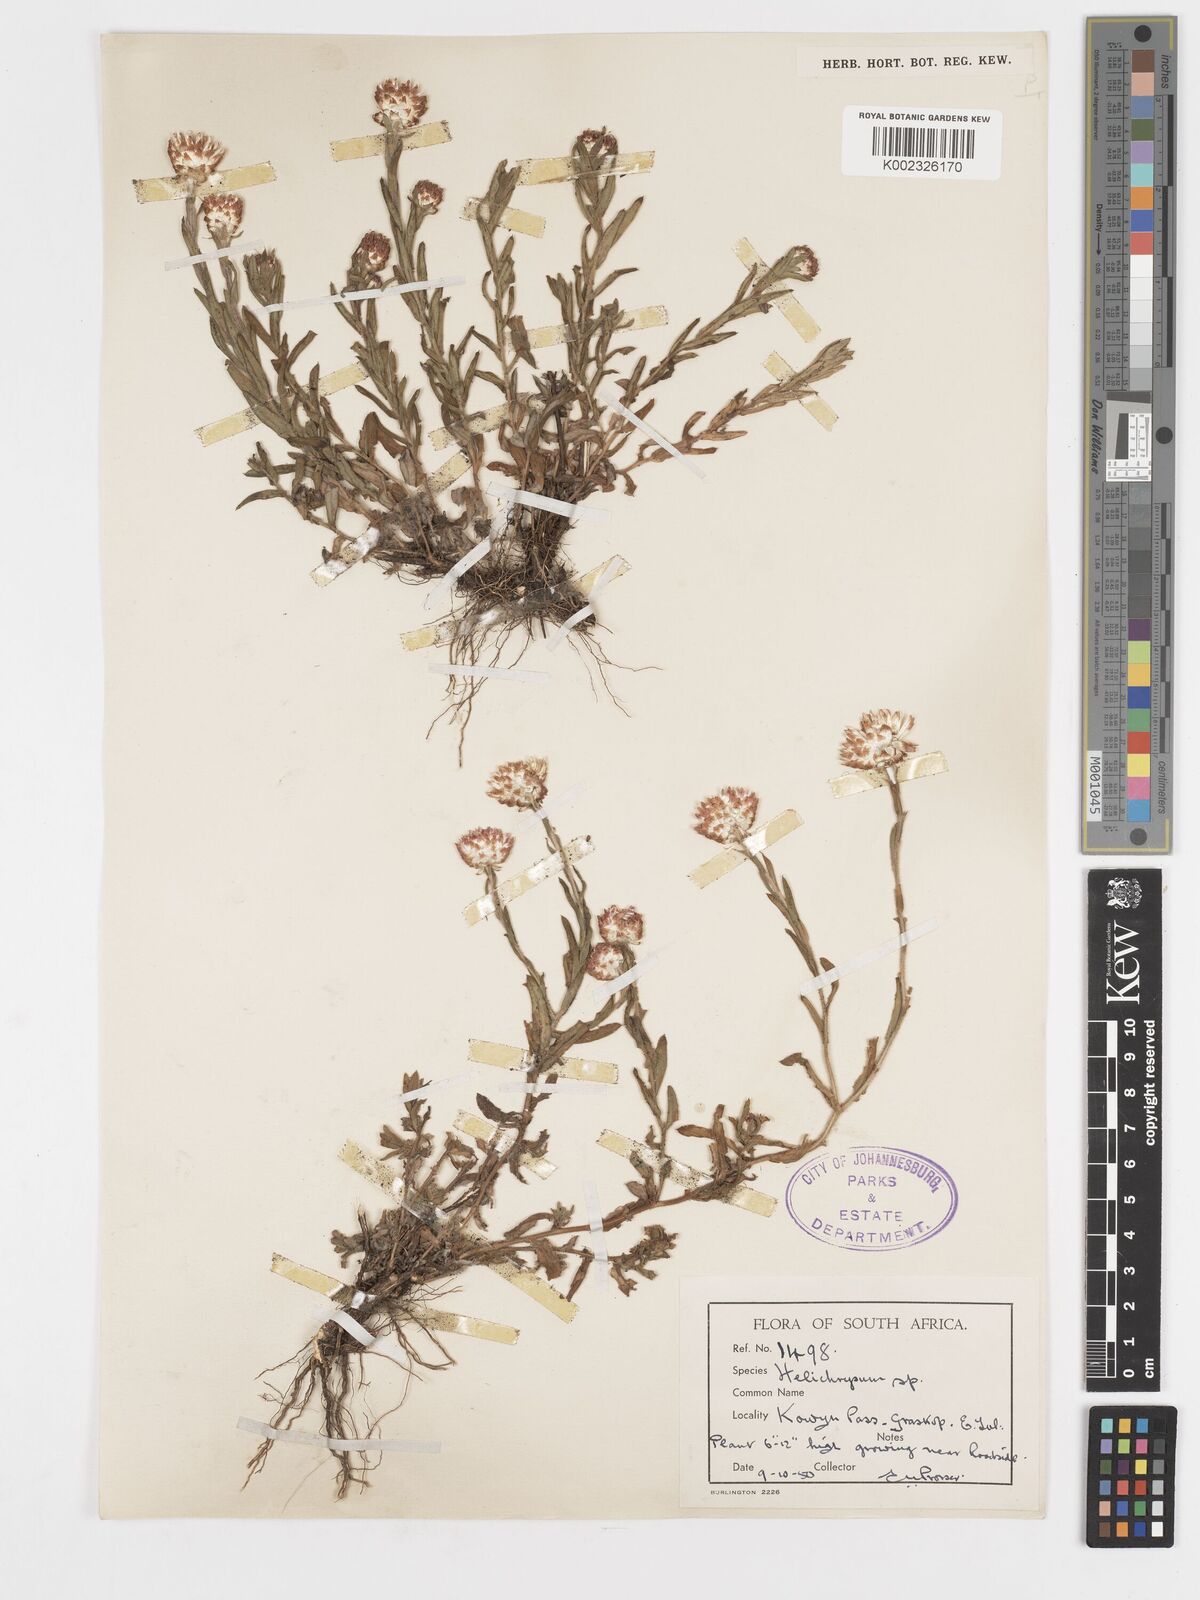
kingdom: Plantae
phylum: Tracheophyta
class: Magnoliopsida
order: Asterales
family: Asteraceae
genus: Helichrysum
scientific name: Helichrysum mariepscopicum
